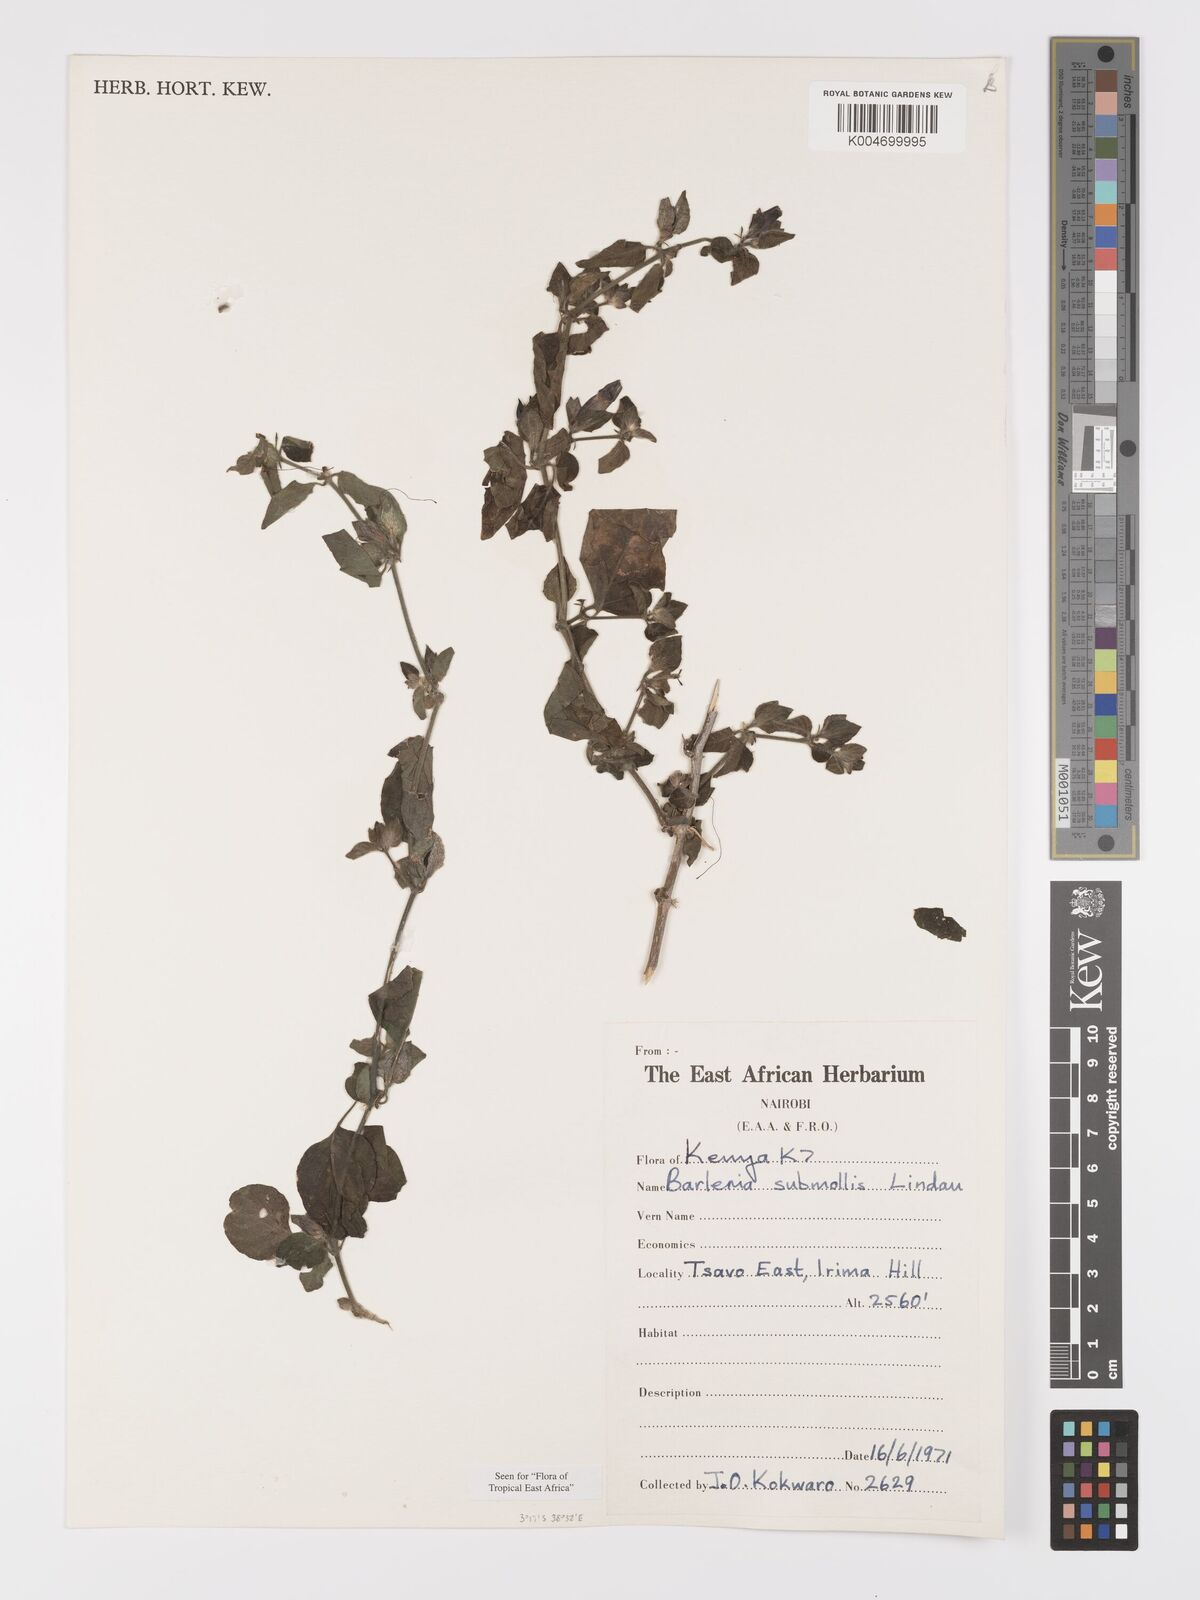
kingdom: Plantae
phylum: Tracheophyta
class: Magnoliopsida
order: Lamiales
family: Acanthaceae
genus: Barleria
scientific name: Barleria submollis
